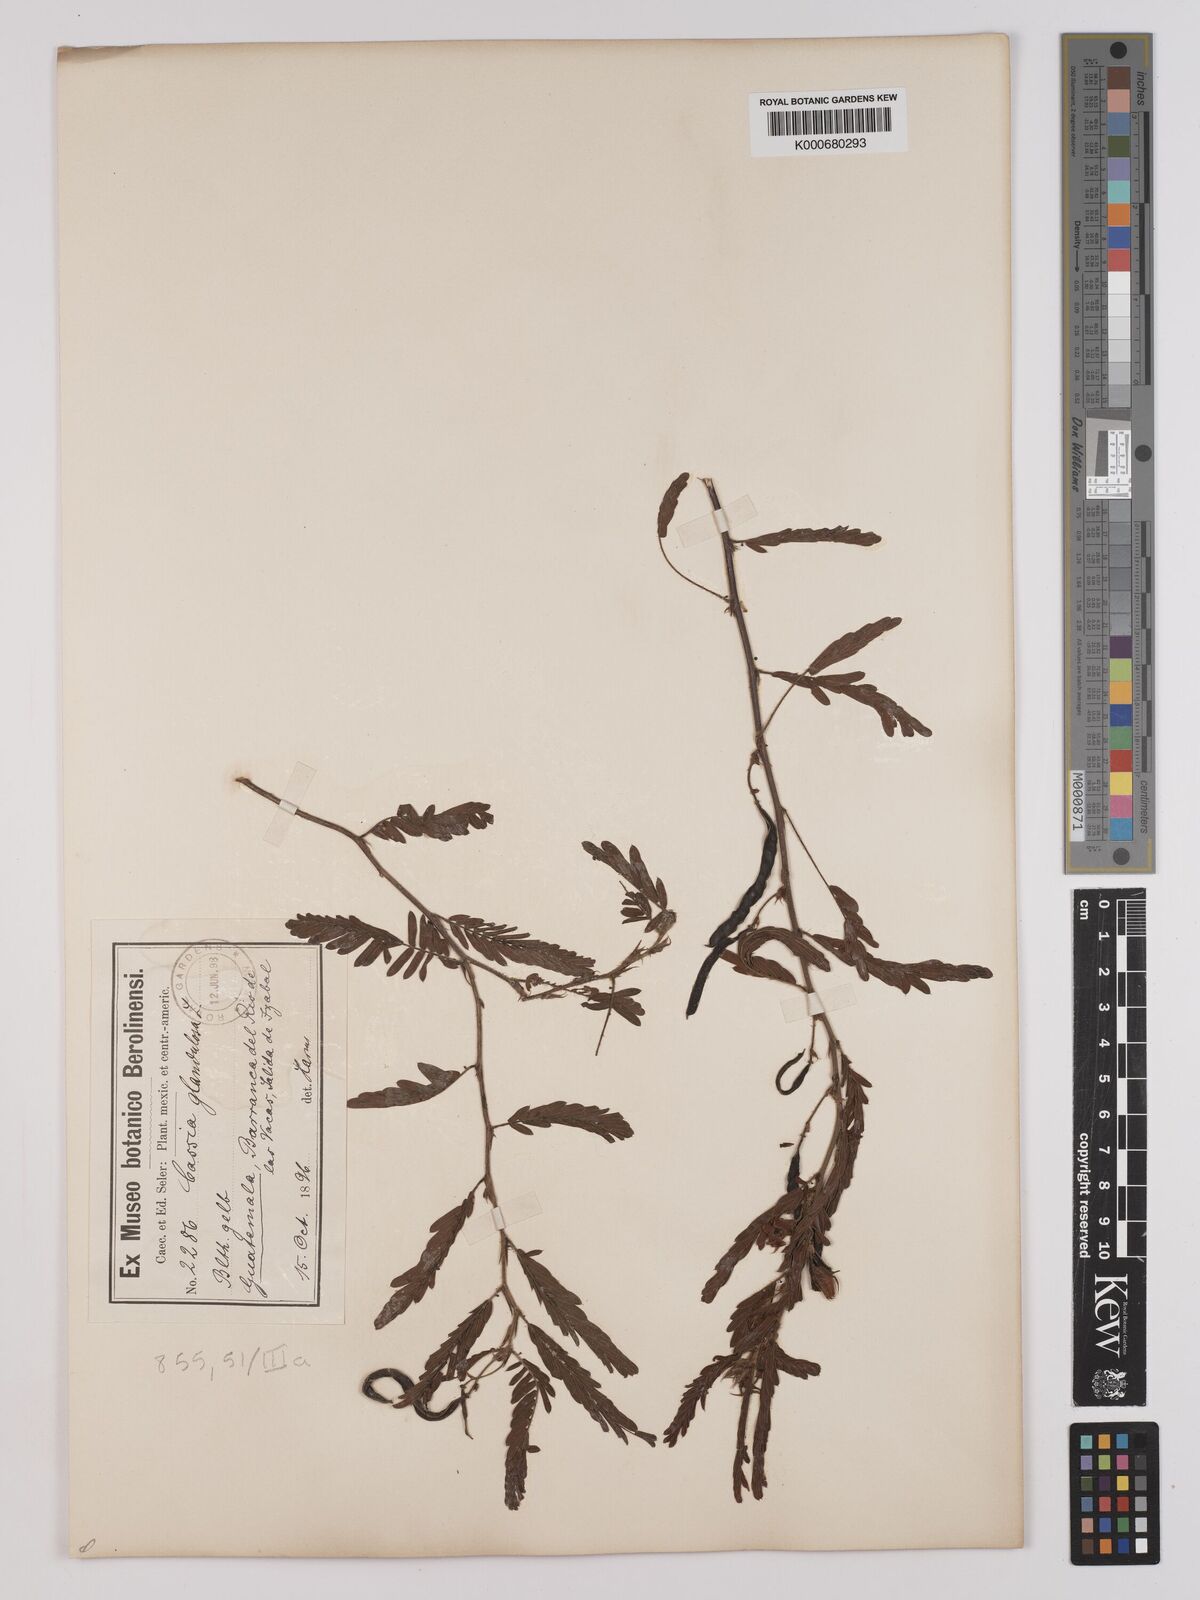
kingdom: Plantae
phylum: Tracheophyta
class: Magnoliopsida
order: Fabales
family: Fabaceae
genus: Chamaecrista
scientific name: Chamaecrista glandulosa
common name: Wild peas
